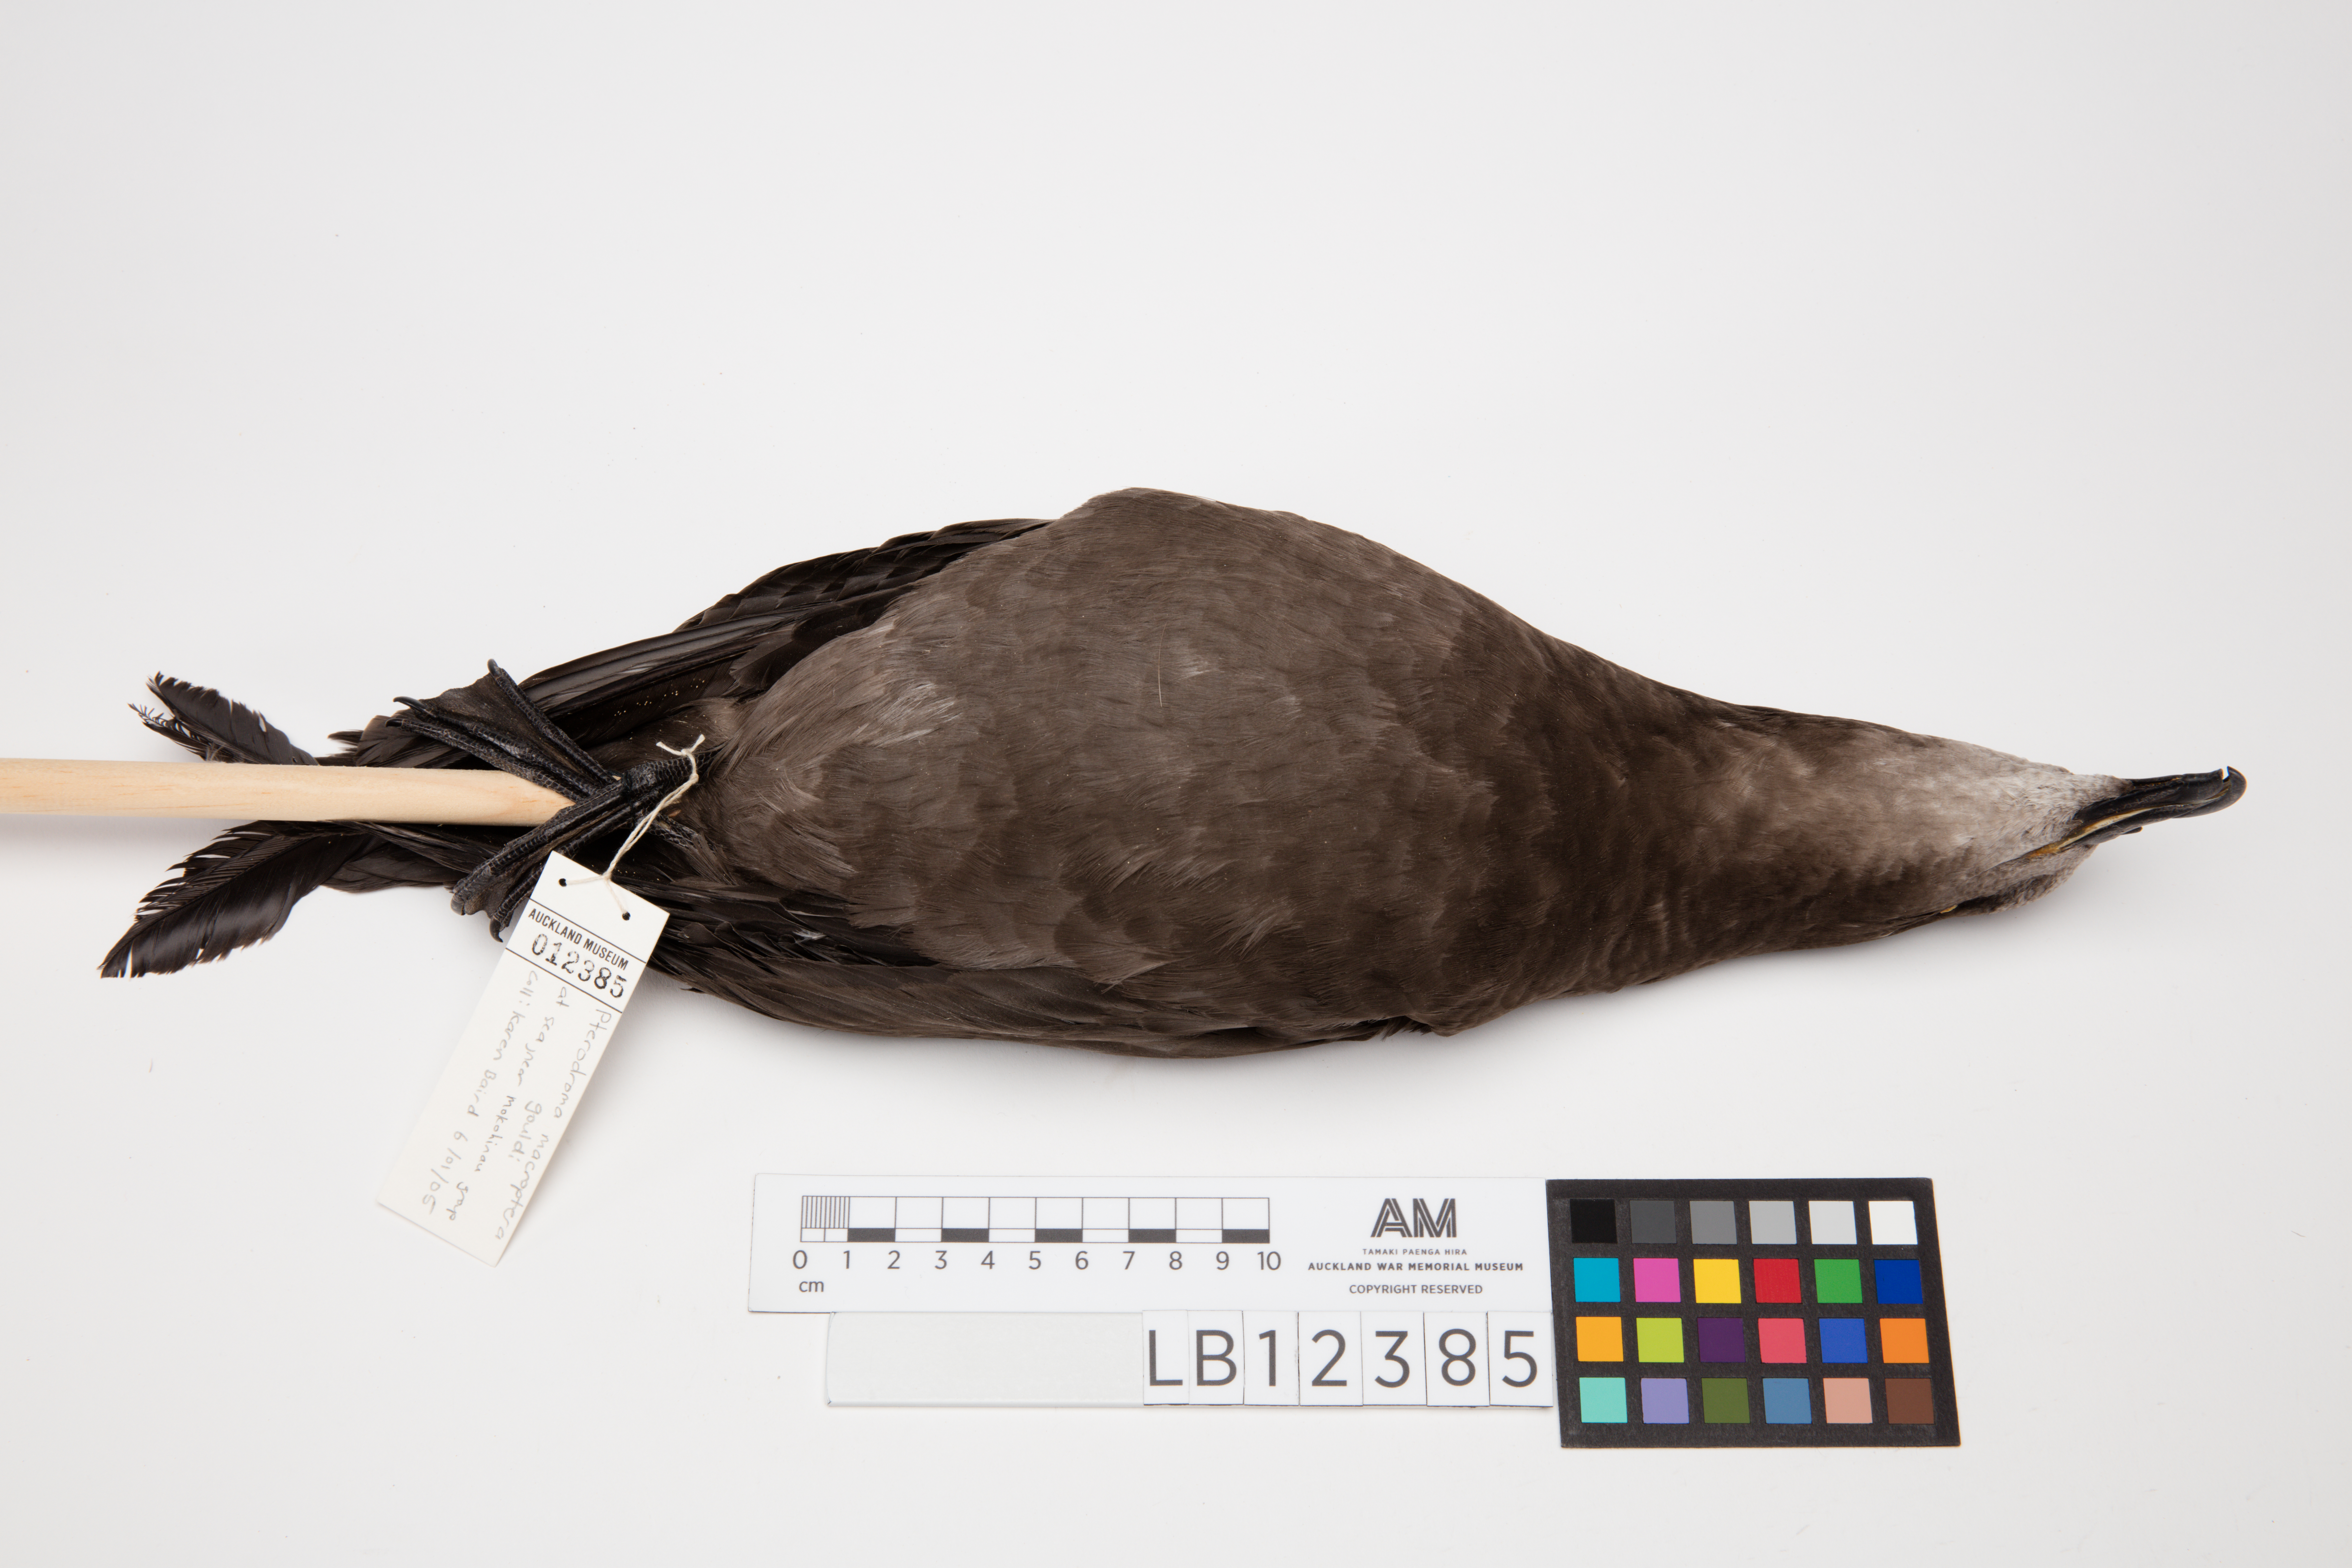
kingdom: Animalia
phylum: Chordata
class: Aves
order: Procellariiformes
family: Procellariidae
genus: Pterodroma
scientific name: Pterodroma macroptera
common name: Great-winged petrel
